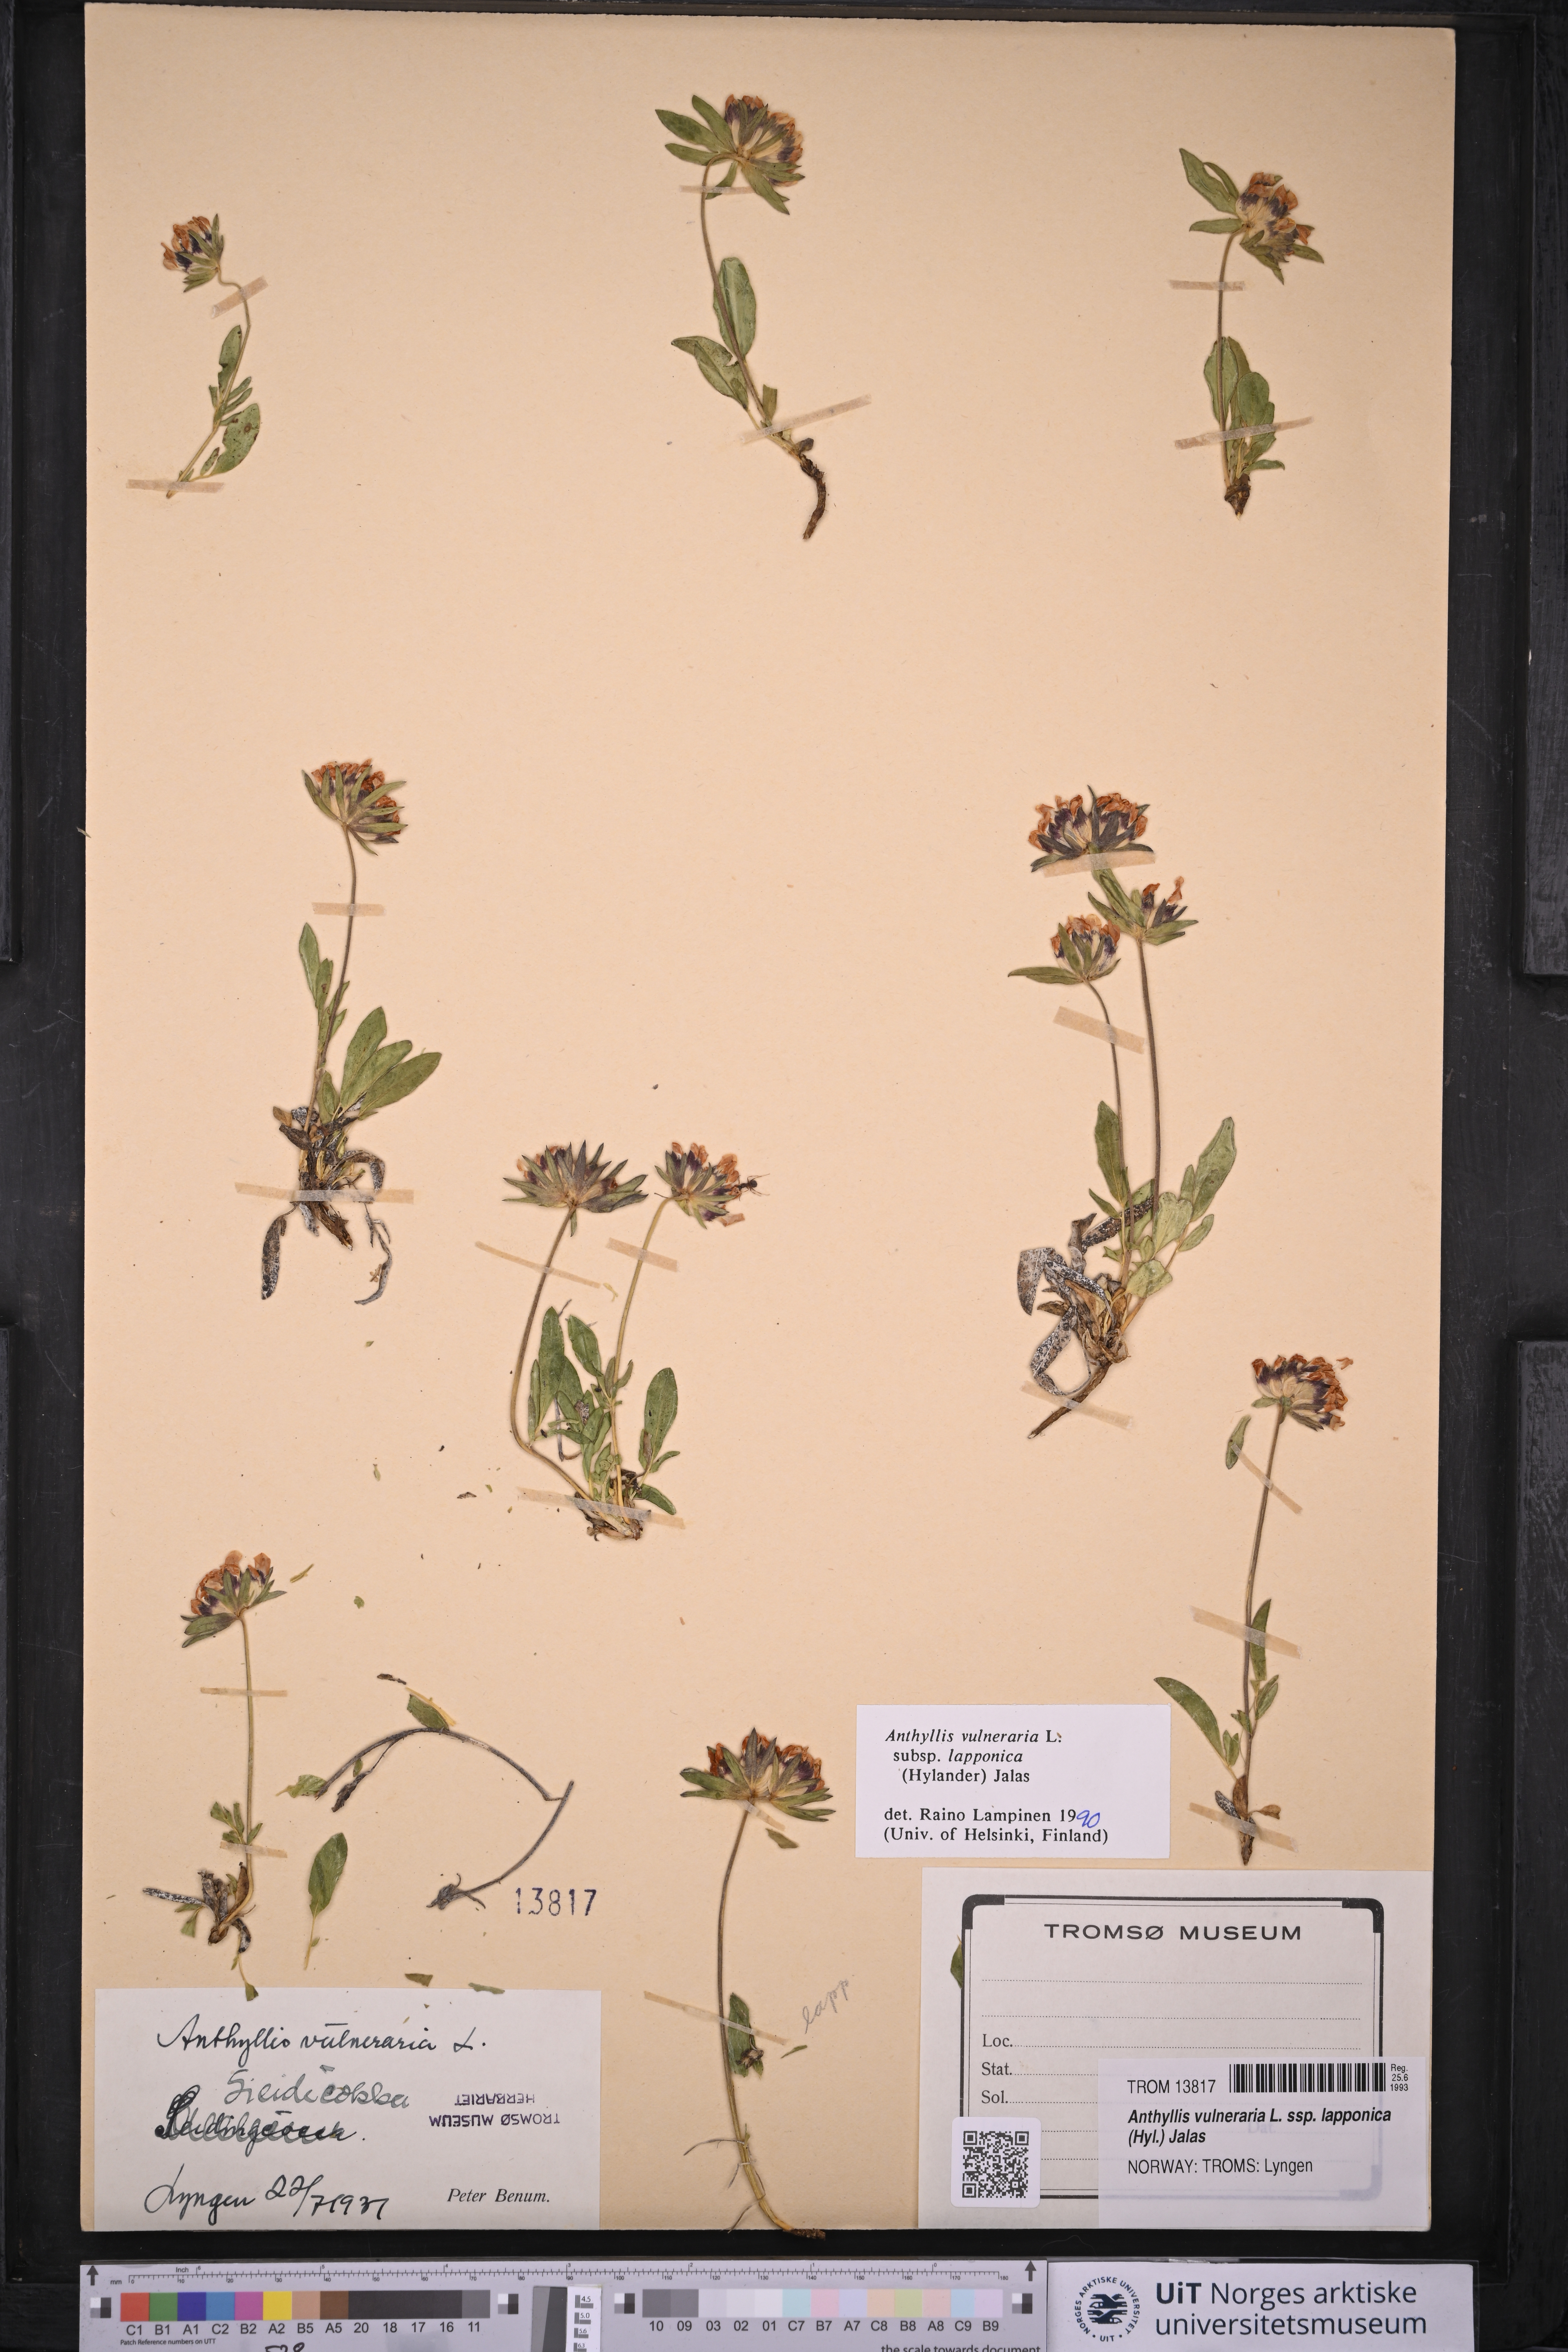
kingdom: Plantae
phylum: Tracheophyta
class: Magnoliopsida
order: Fabales
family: Fabaceae
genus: Anthyllis
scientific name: Anthyllis vulneraria
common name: Kidney vetch
